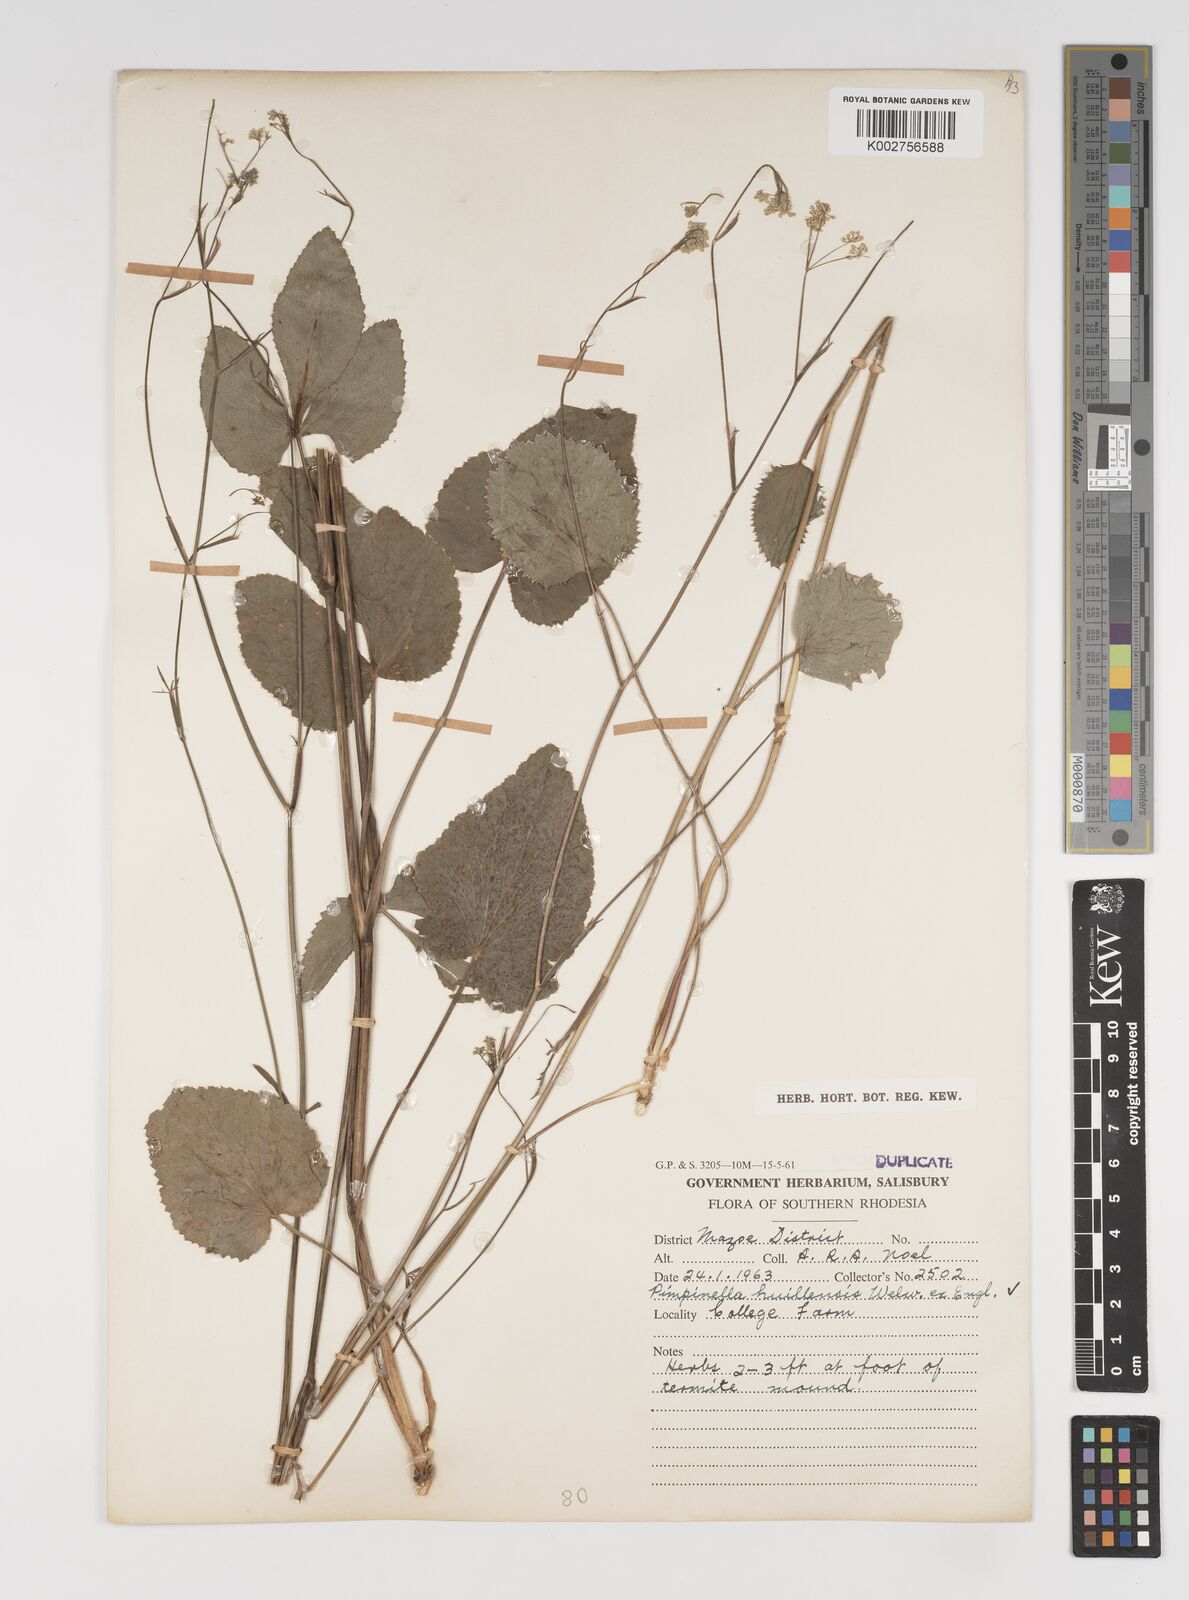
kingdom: Plantae
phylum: Tracheophyta
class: Magnoliopsida
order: Apiales
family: Apiaceae
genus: Pimpinella
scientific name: Pimpinella huillensis
